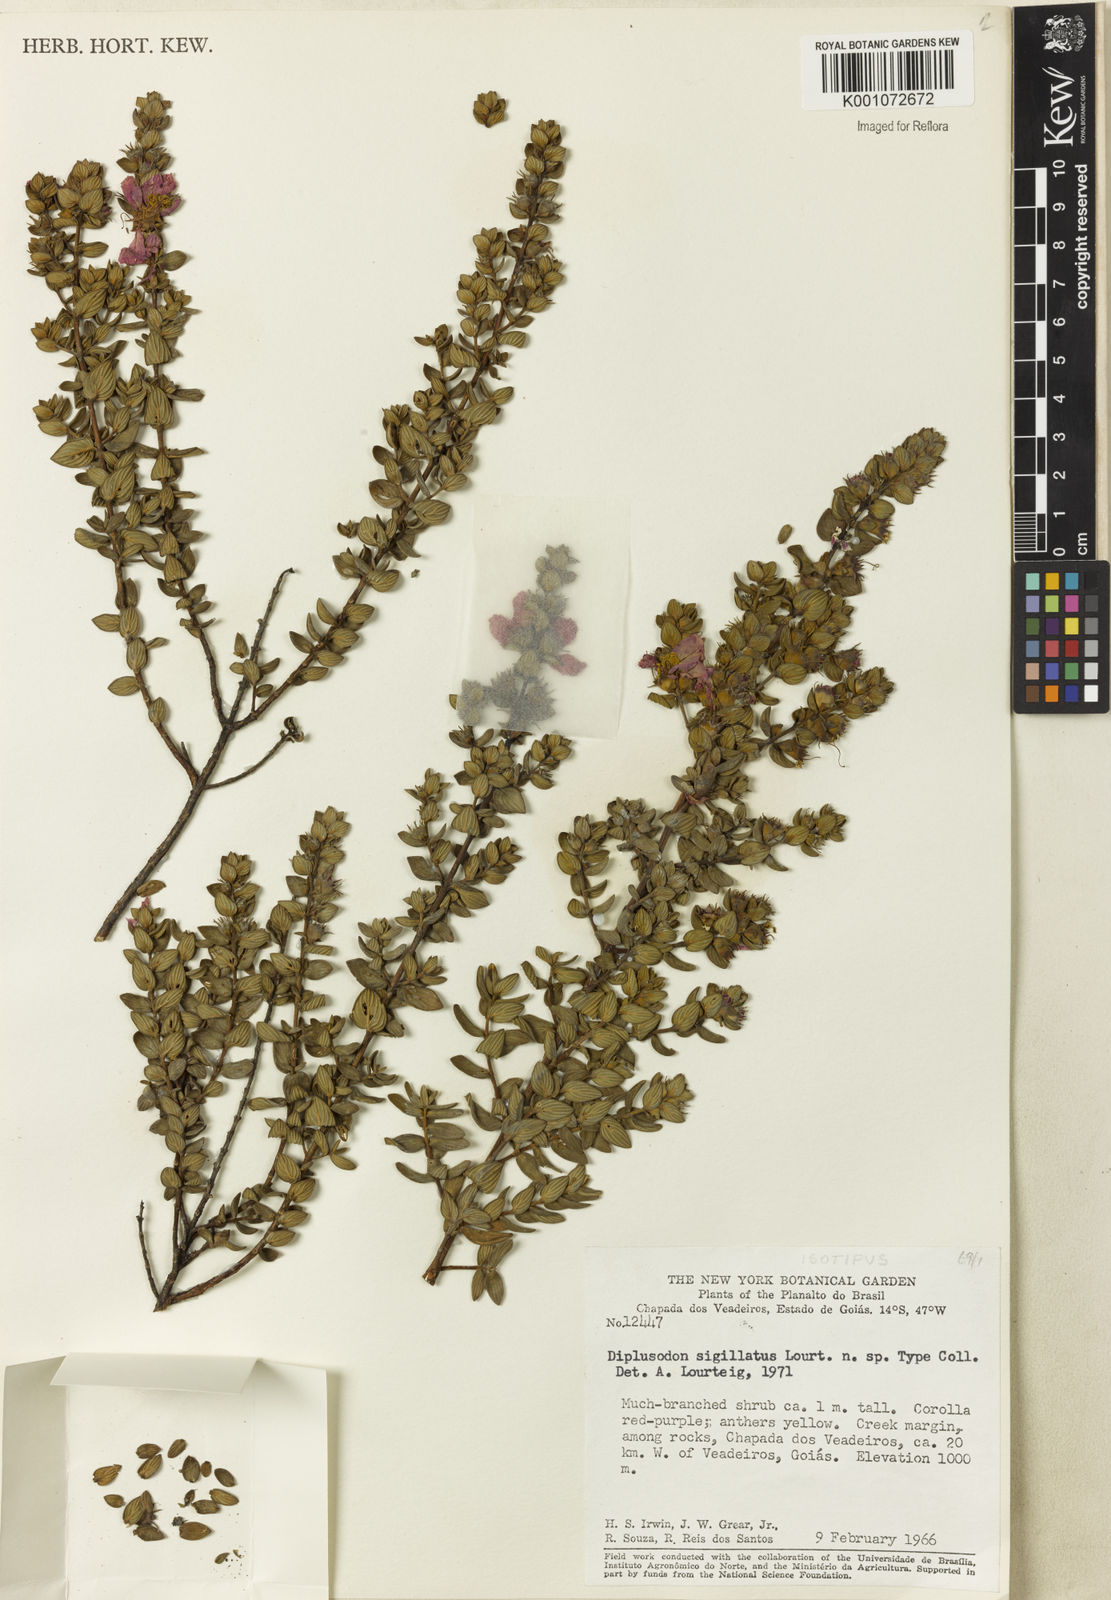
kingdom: Plantae
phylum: Tracheophyta
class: Magnoliopsida
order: Myrtales
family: Lythraceae
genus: Diplusodon
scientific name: Diplusodon sigillatus
